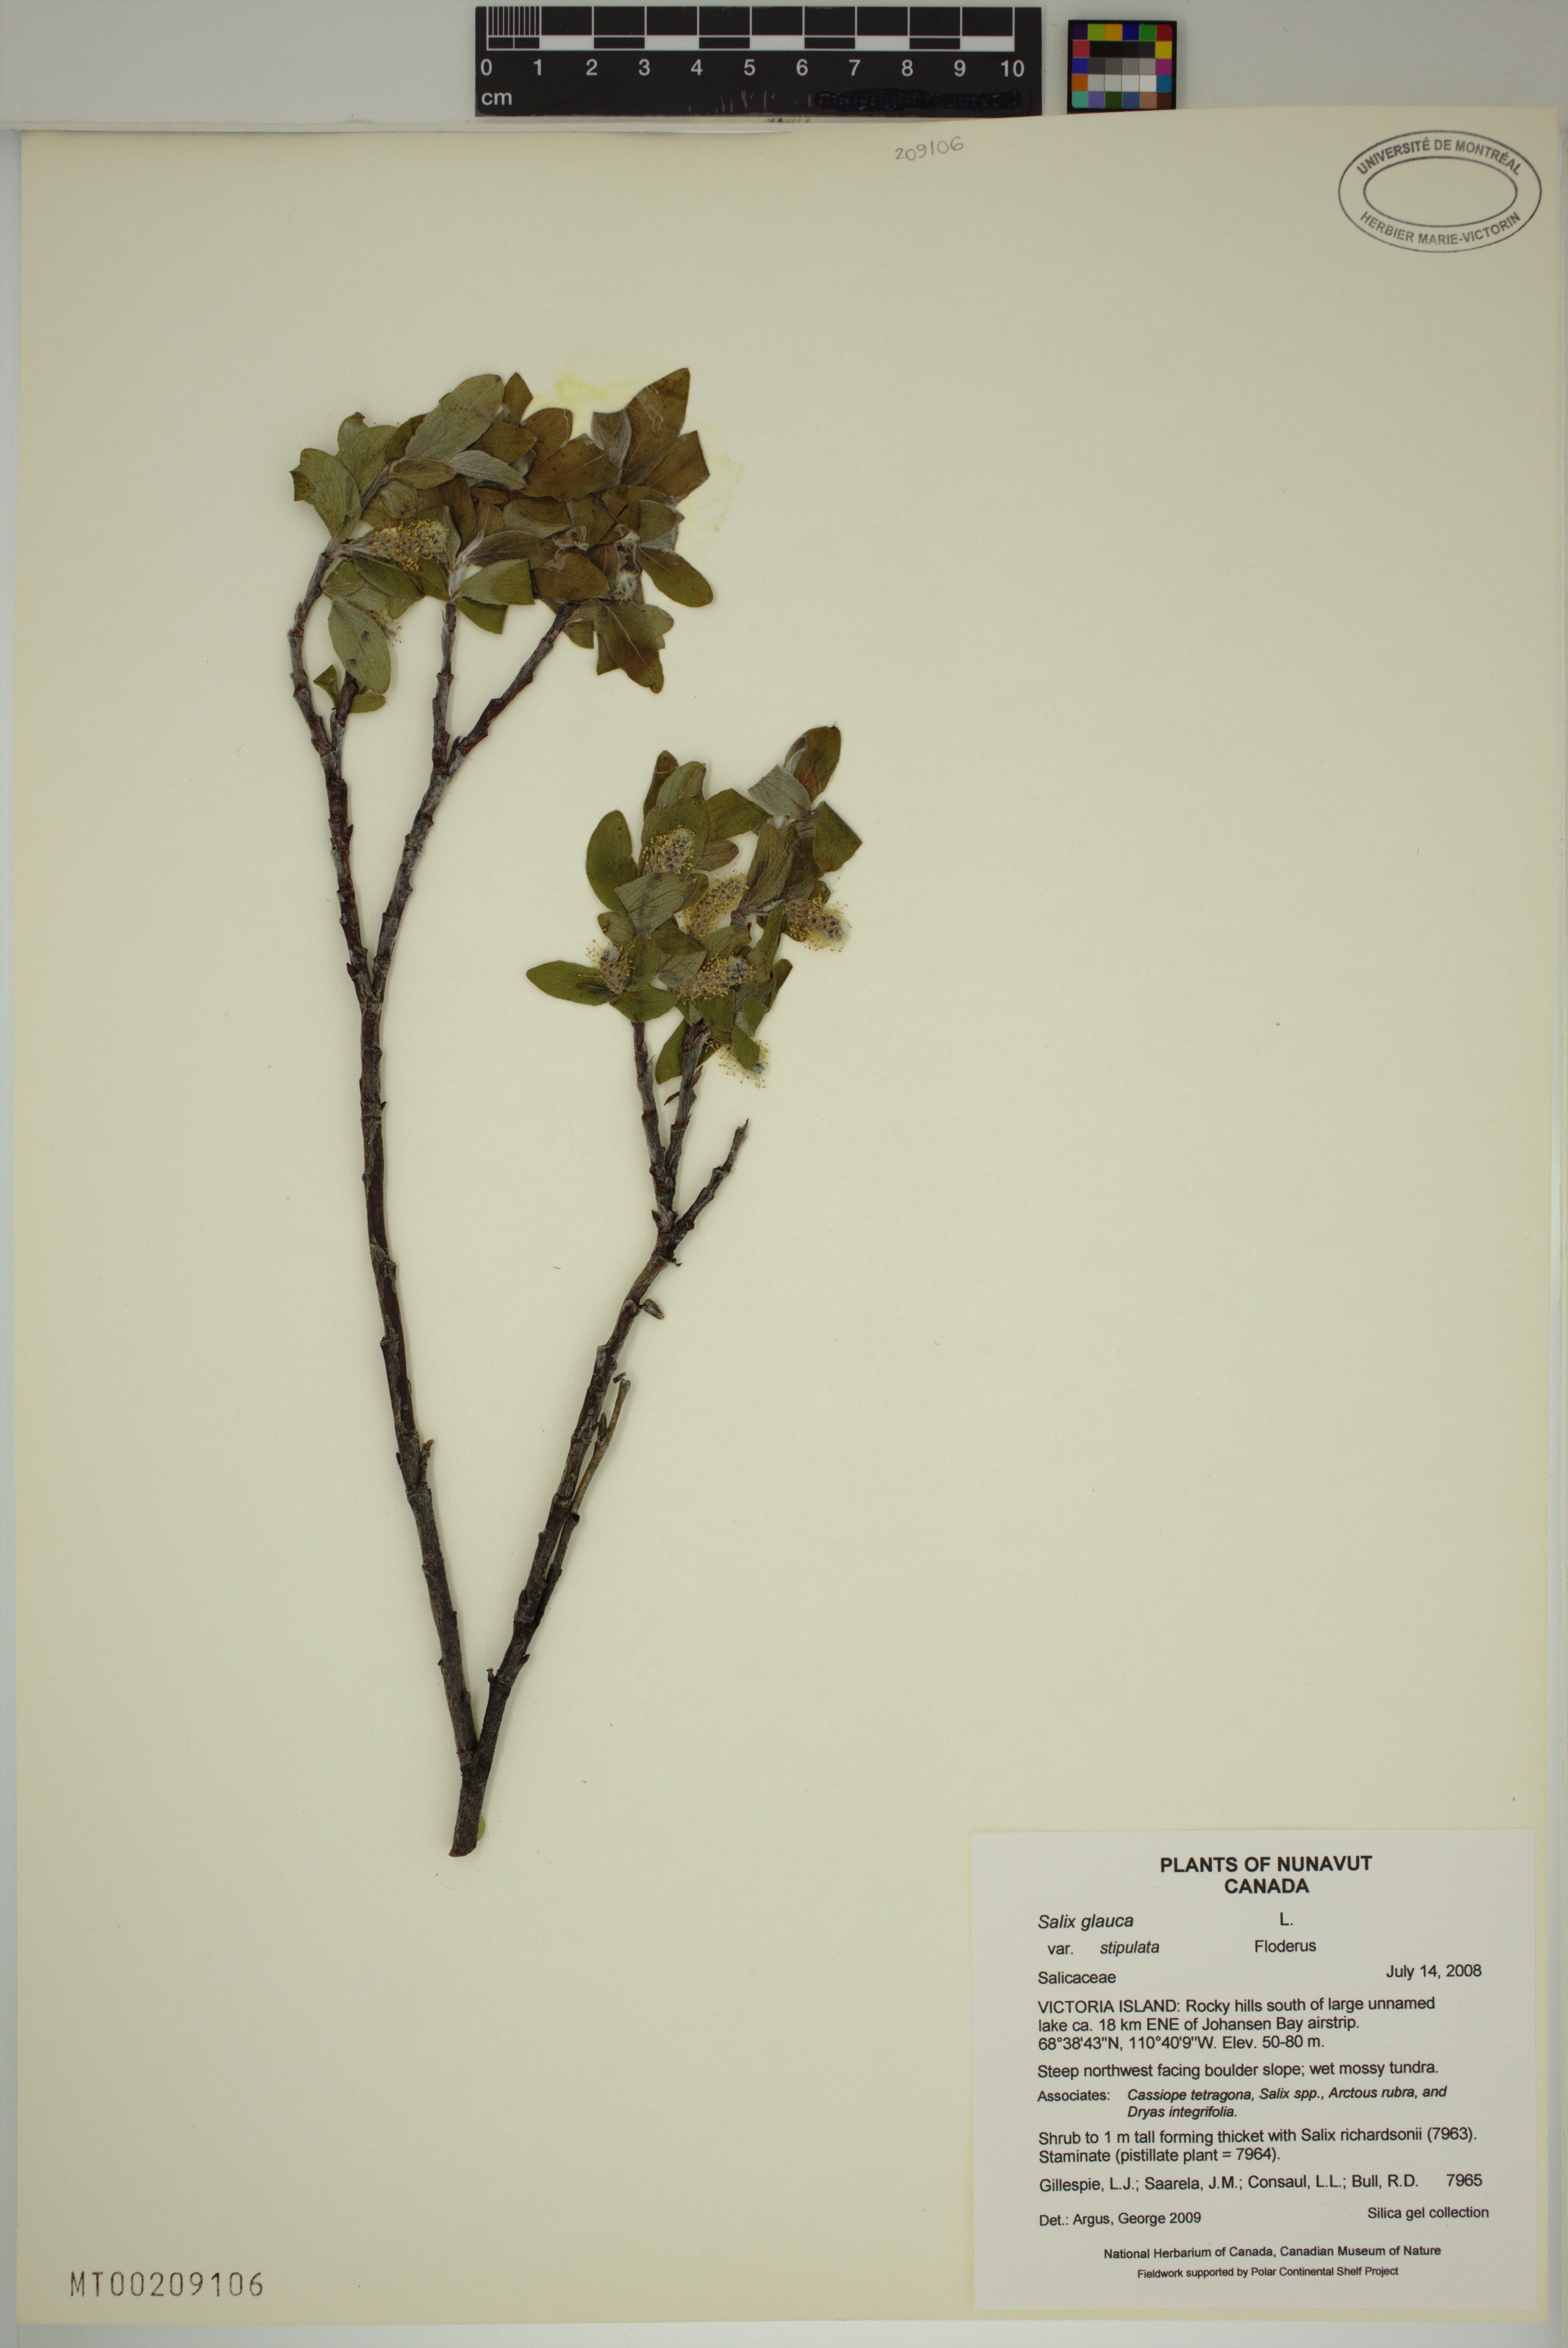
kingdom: Plantae
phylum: Tracheophyta
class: Magnoliopsida
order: Malpighiales
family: Salicaceae
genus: Salix
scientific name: Salix glauca
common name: Glaucous willow
